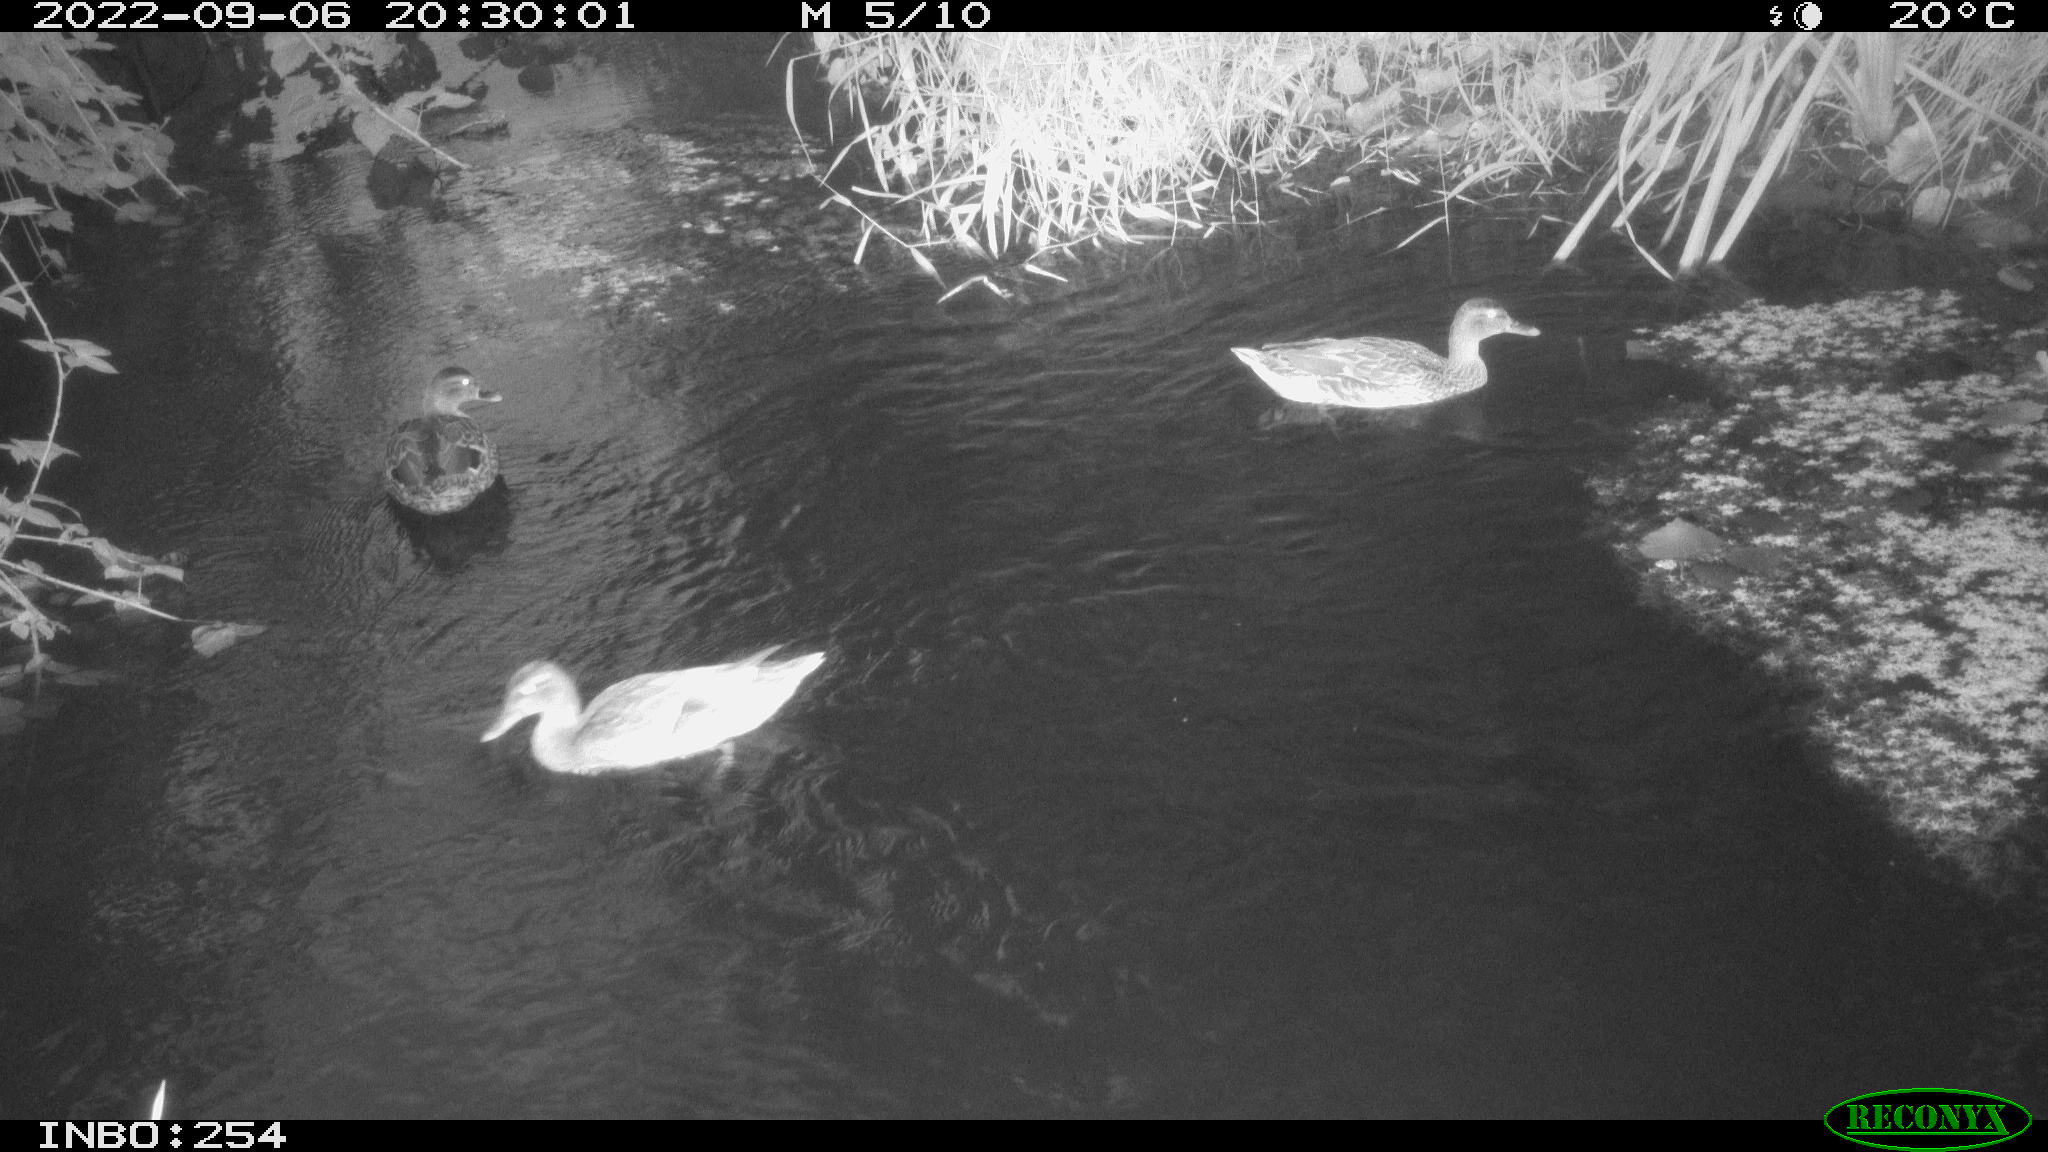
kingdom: Animalia
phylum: Chordata
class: Aves
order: Anseriformes
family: Anatidae
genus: Anas
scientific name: Anas platyrhynchos
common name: Mallard
